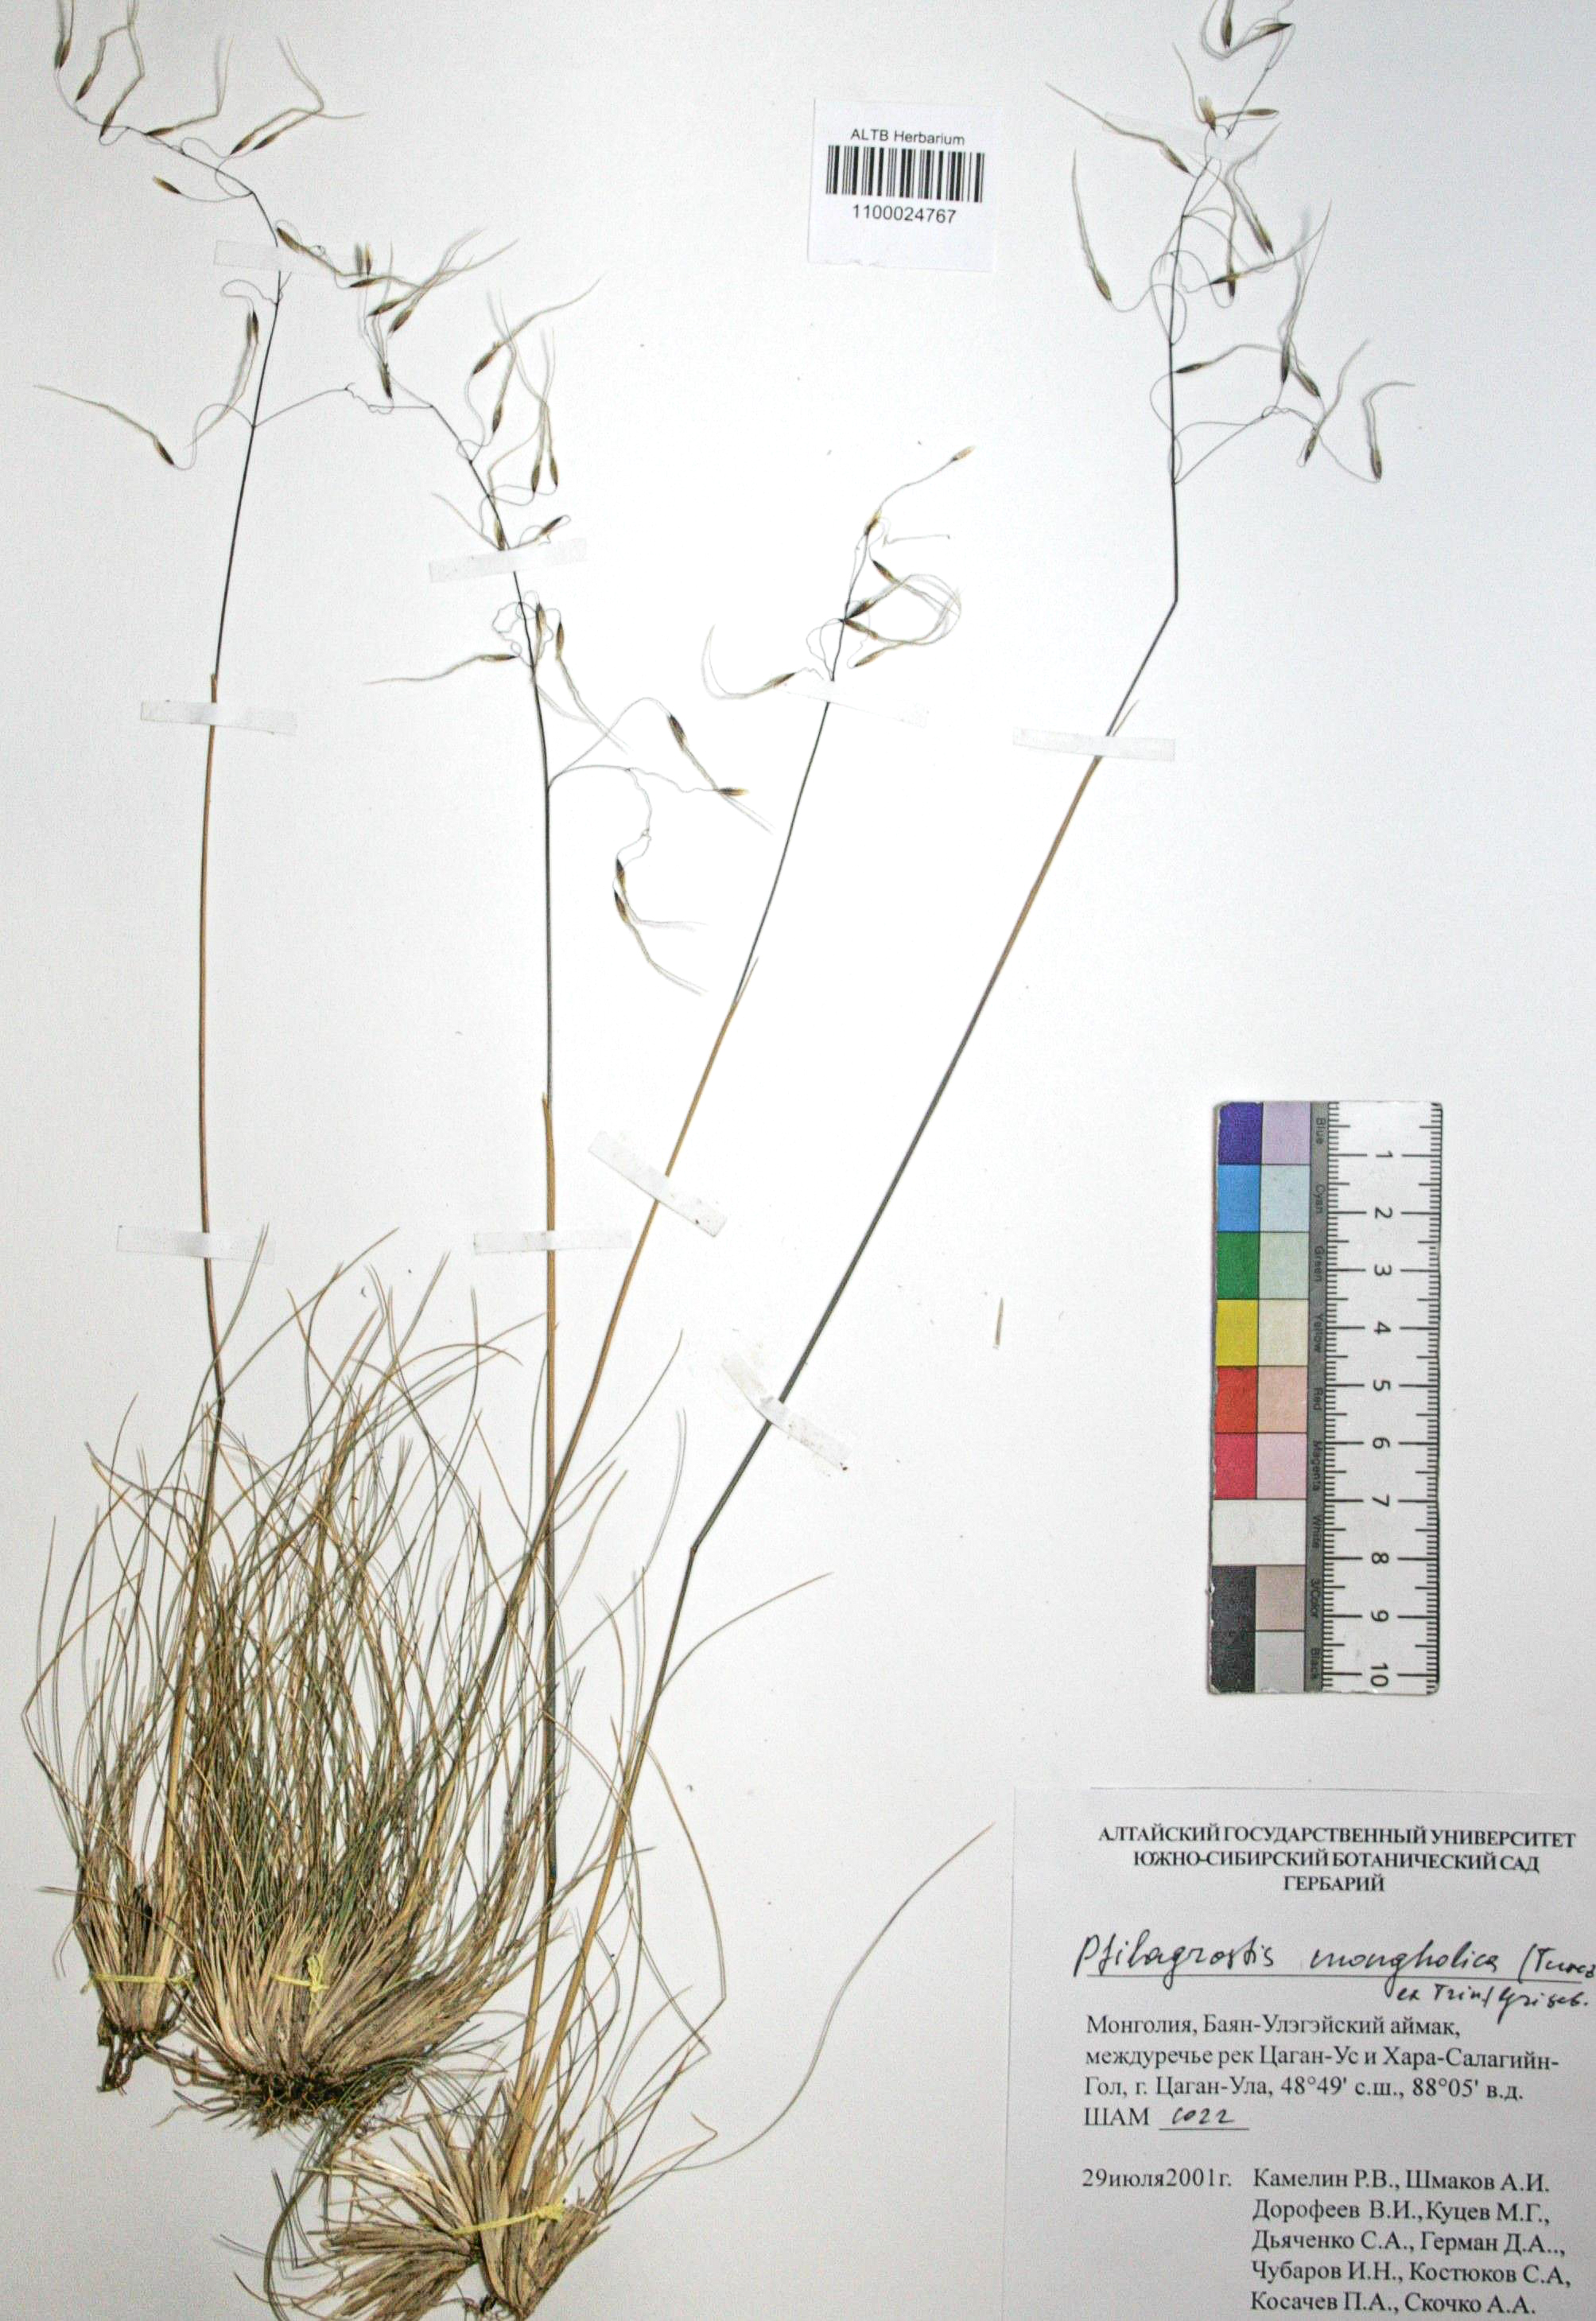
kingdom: Plantae
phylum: Tracheophyta
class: Liliopsida
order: Poales
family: Poaceae
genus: Ptilagrostis
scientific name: Ptilagrostis mongholica
